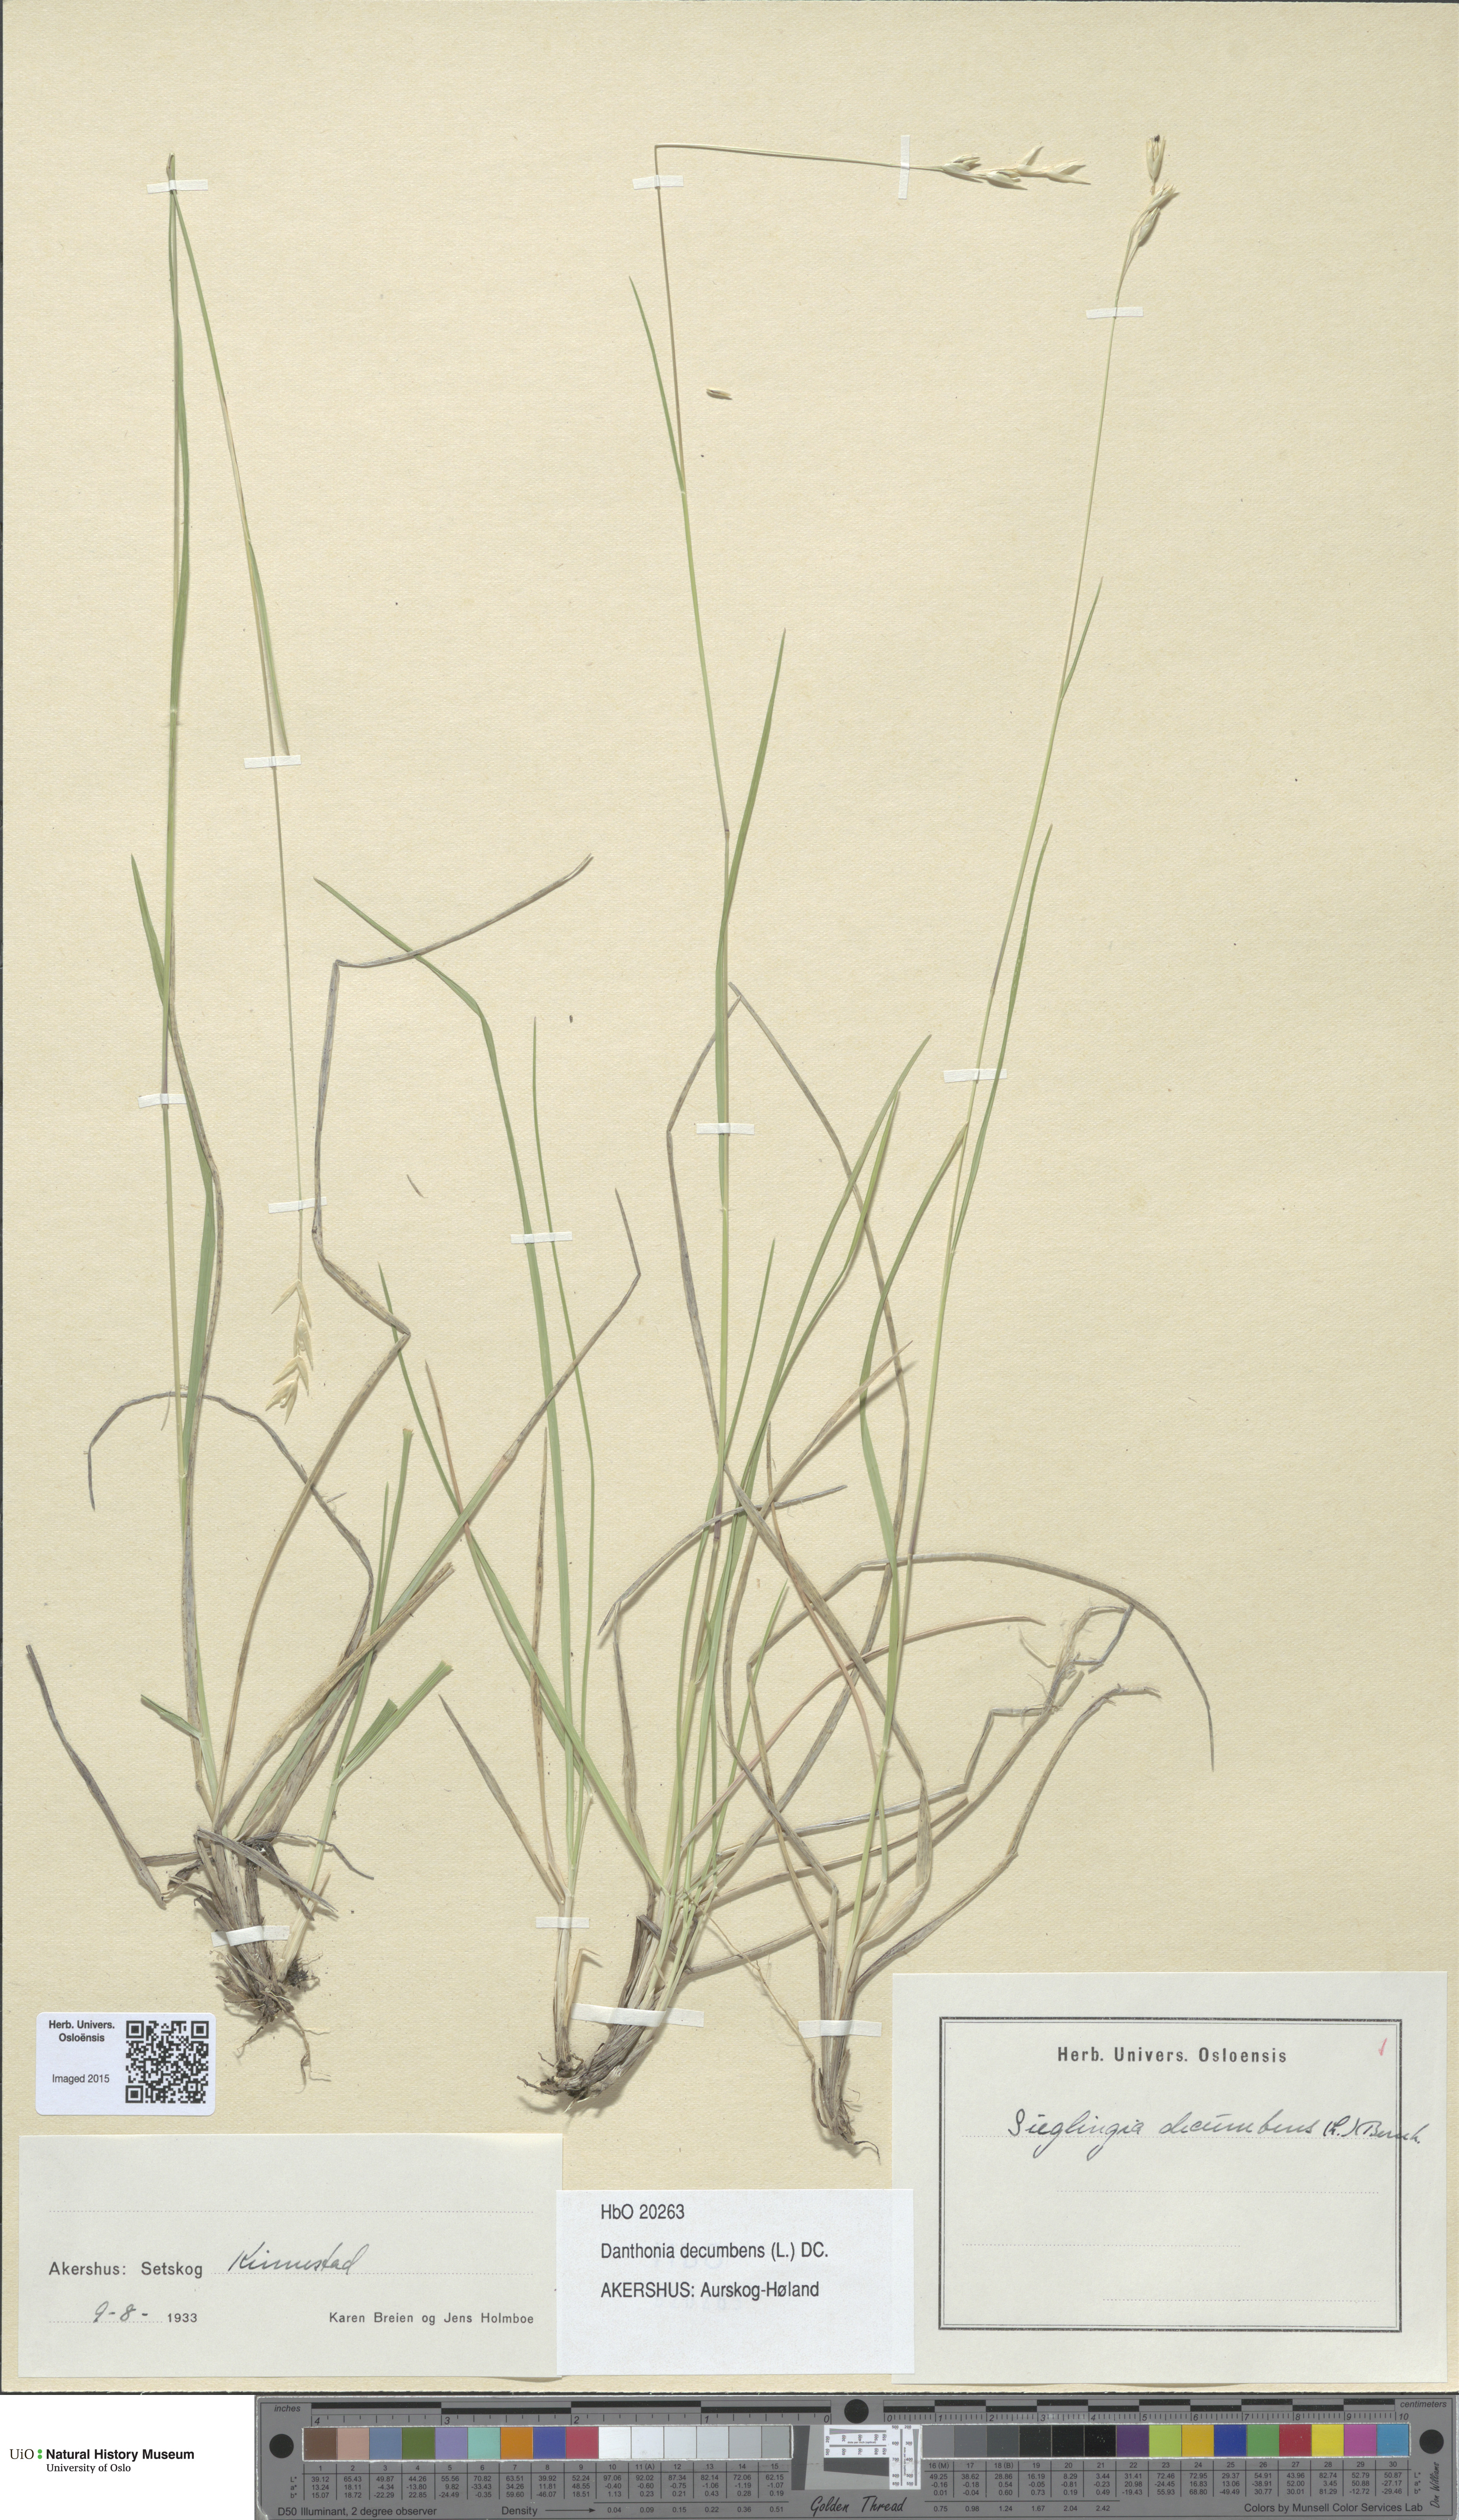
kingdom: Plantae
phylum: Tracheophyta
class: Liliopsida
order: Poales
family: Poaceae
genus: Danthonia
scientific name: Danthonia decumbens
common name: Common heathgrass
